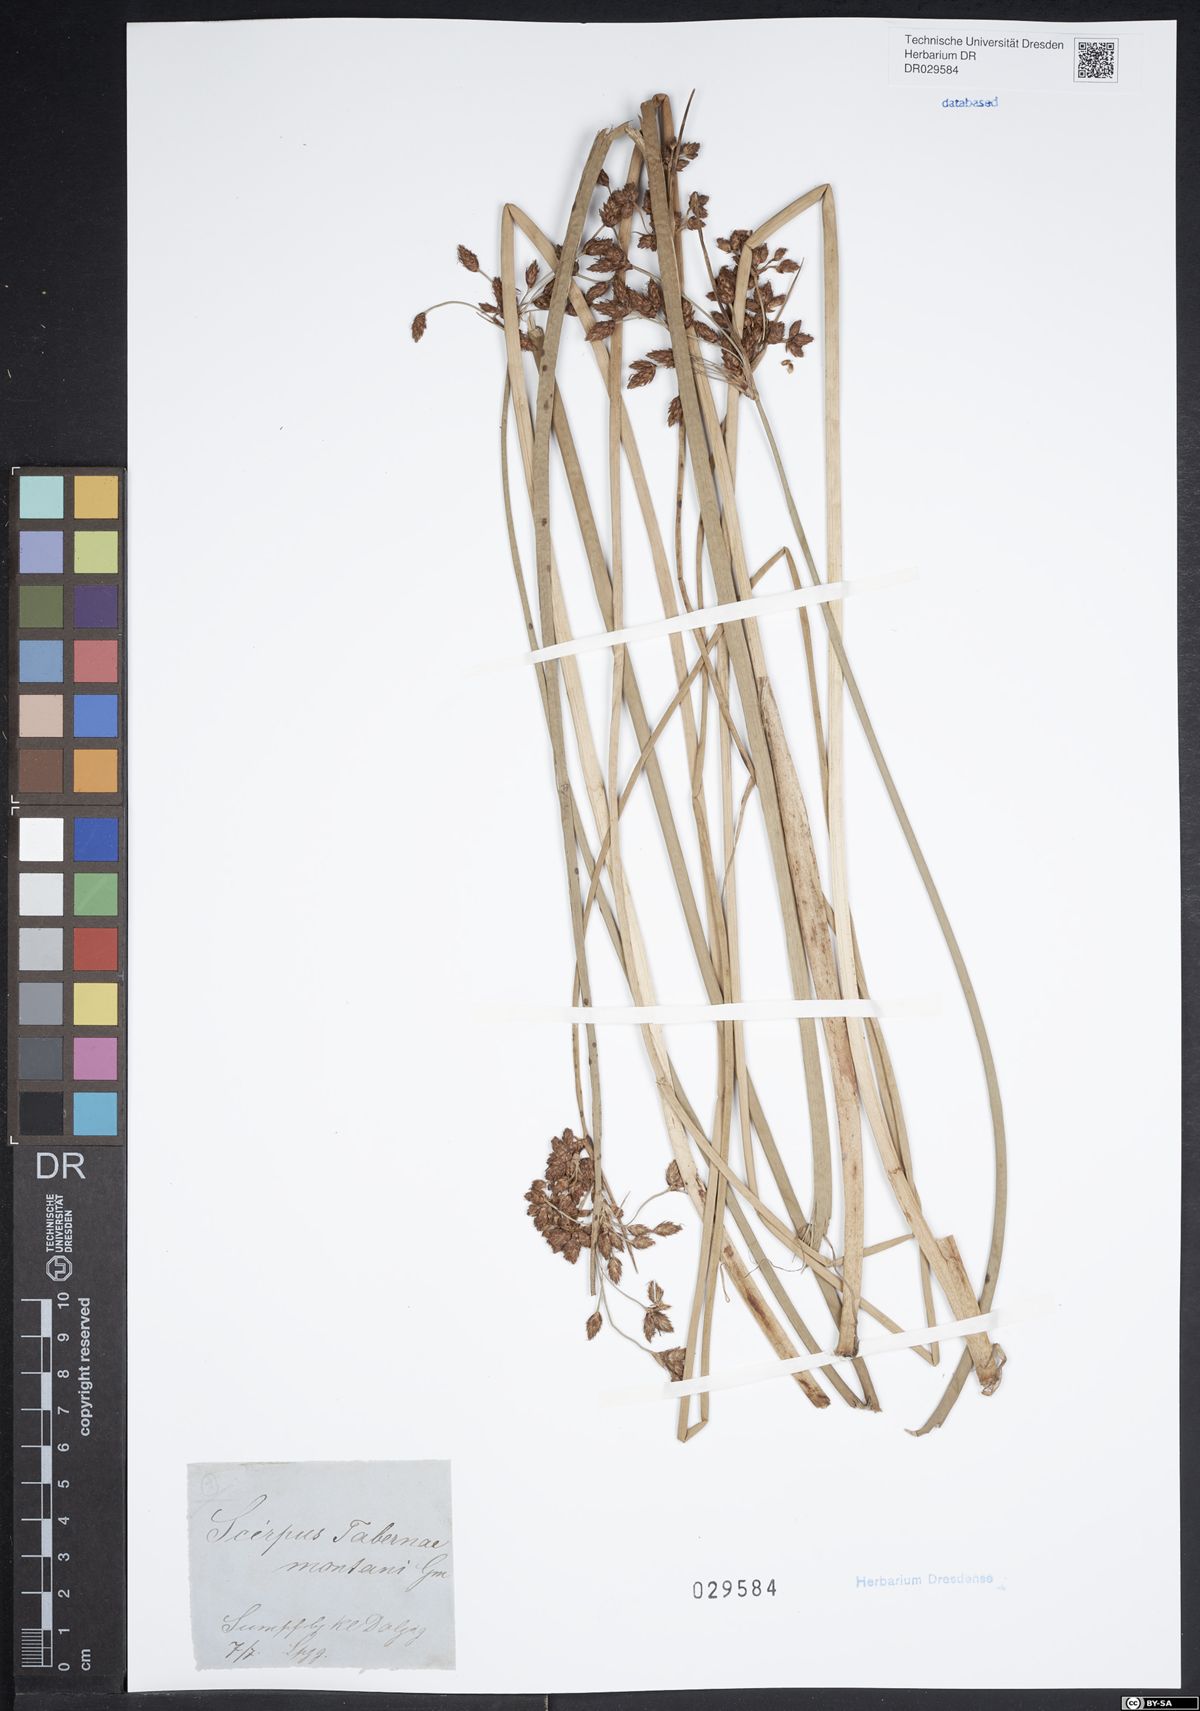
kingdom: Plantae
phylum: Tracheophyta
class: Liliopsida
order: Poales
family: Cyperaceae
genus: Schoenoplectus
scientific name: Schoenoplectus tabernaemontani
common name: Grey club-rush
